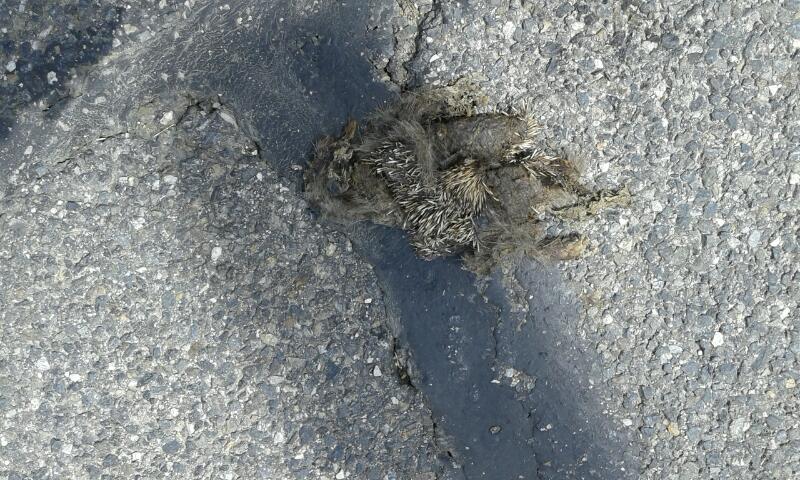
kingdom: Animalia
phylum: Chordata
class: Mammalia
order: Erinaceomorpha
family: Erinaceidae
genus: Erinaceus
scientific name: Erinaceus
